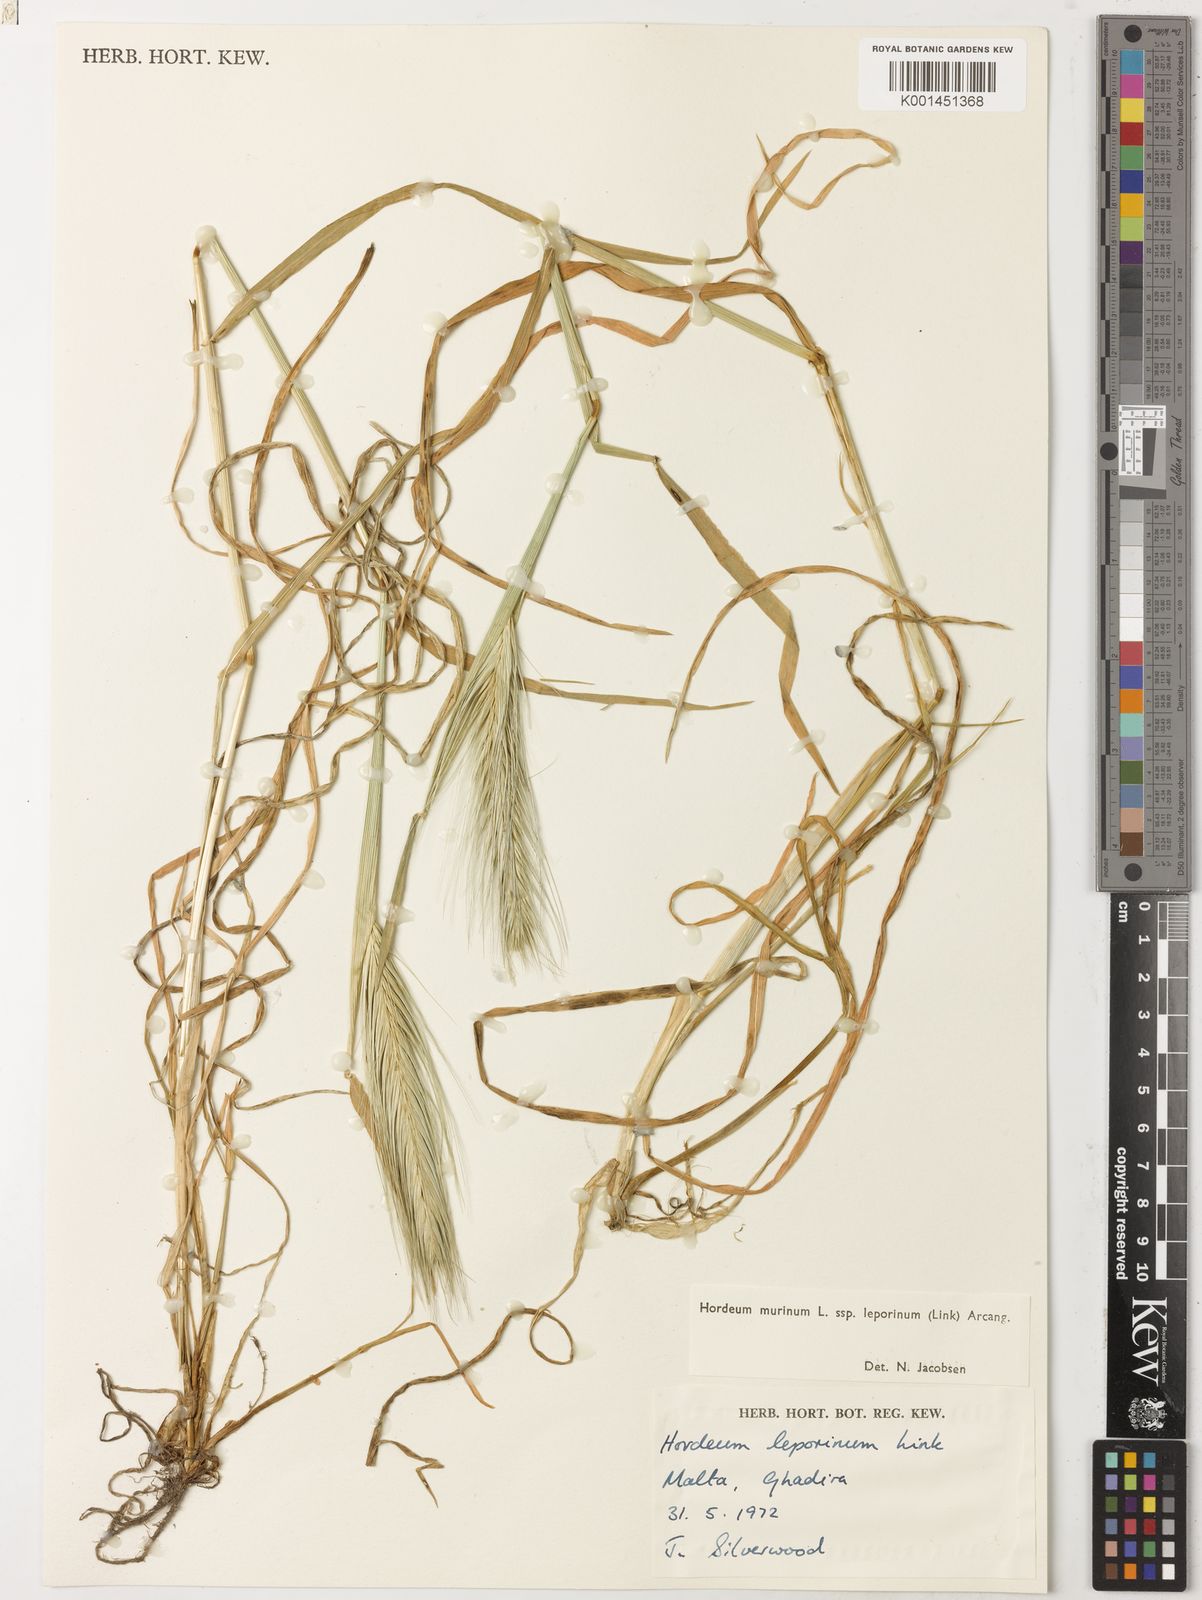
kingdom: Plantae
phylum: Tracheophyta
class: Liliopsida
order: Poales
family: Poaceae
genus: Hordeum
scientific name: Hordeum murinum
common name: Wall barley
